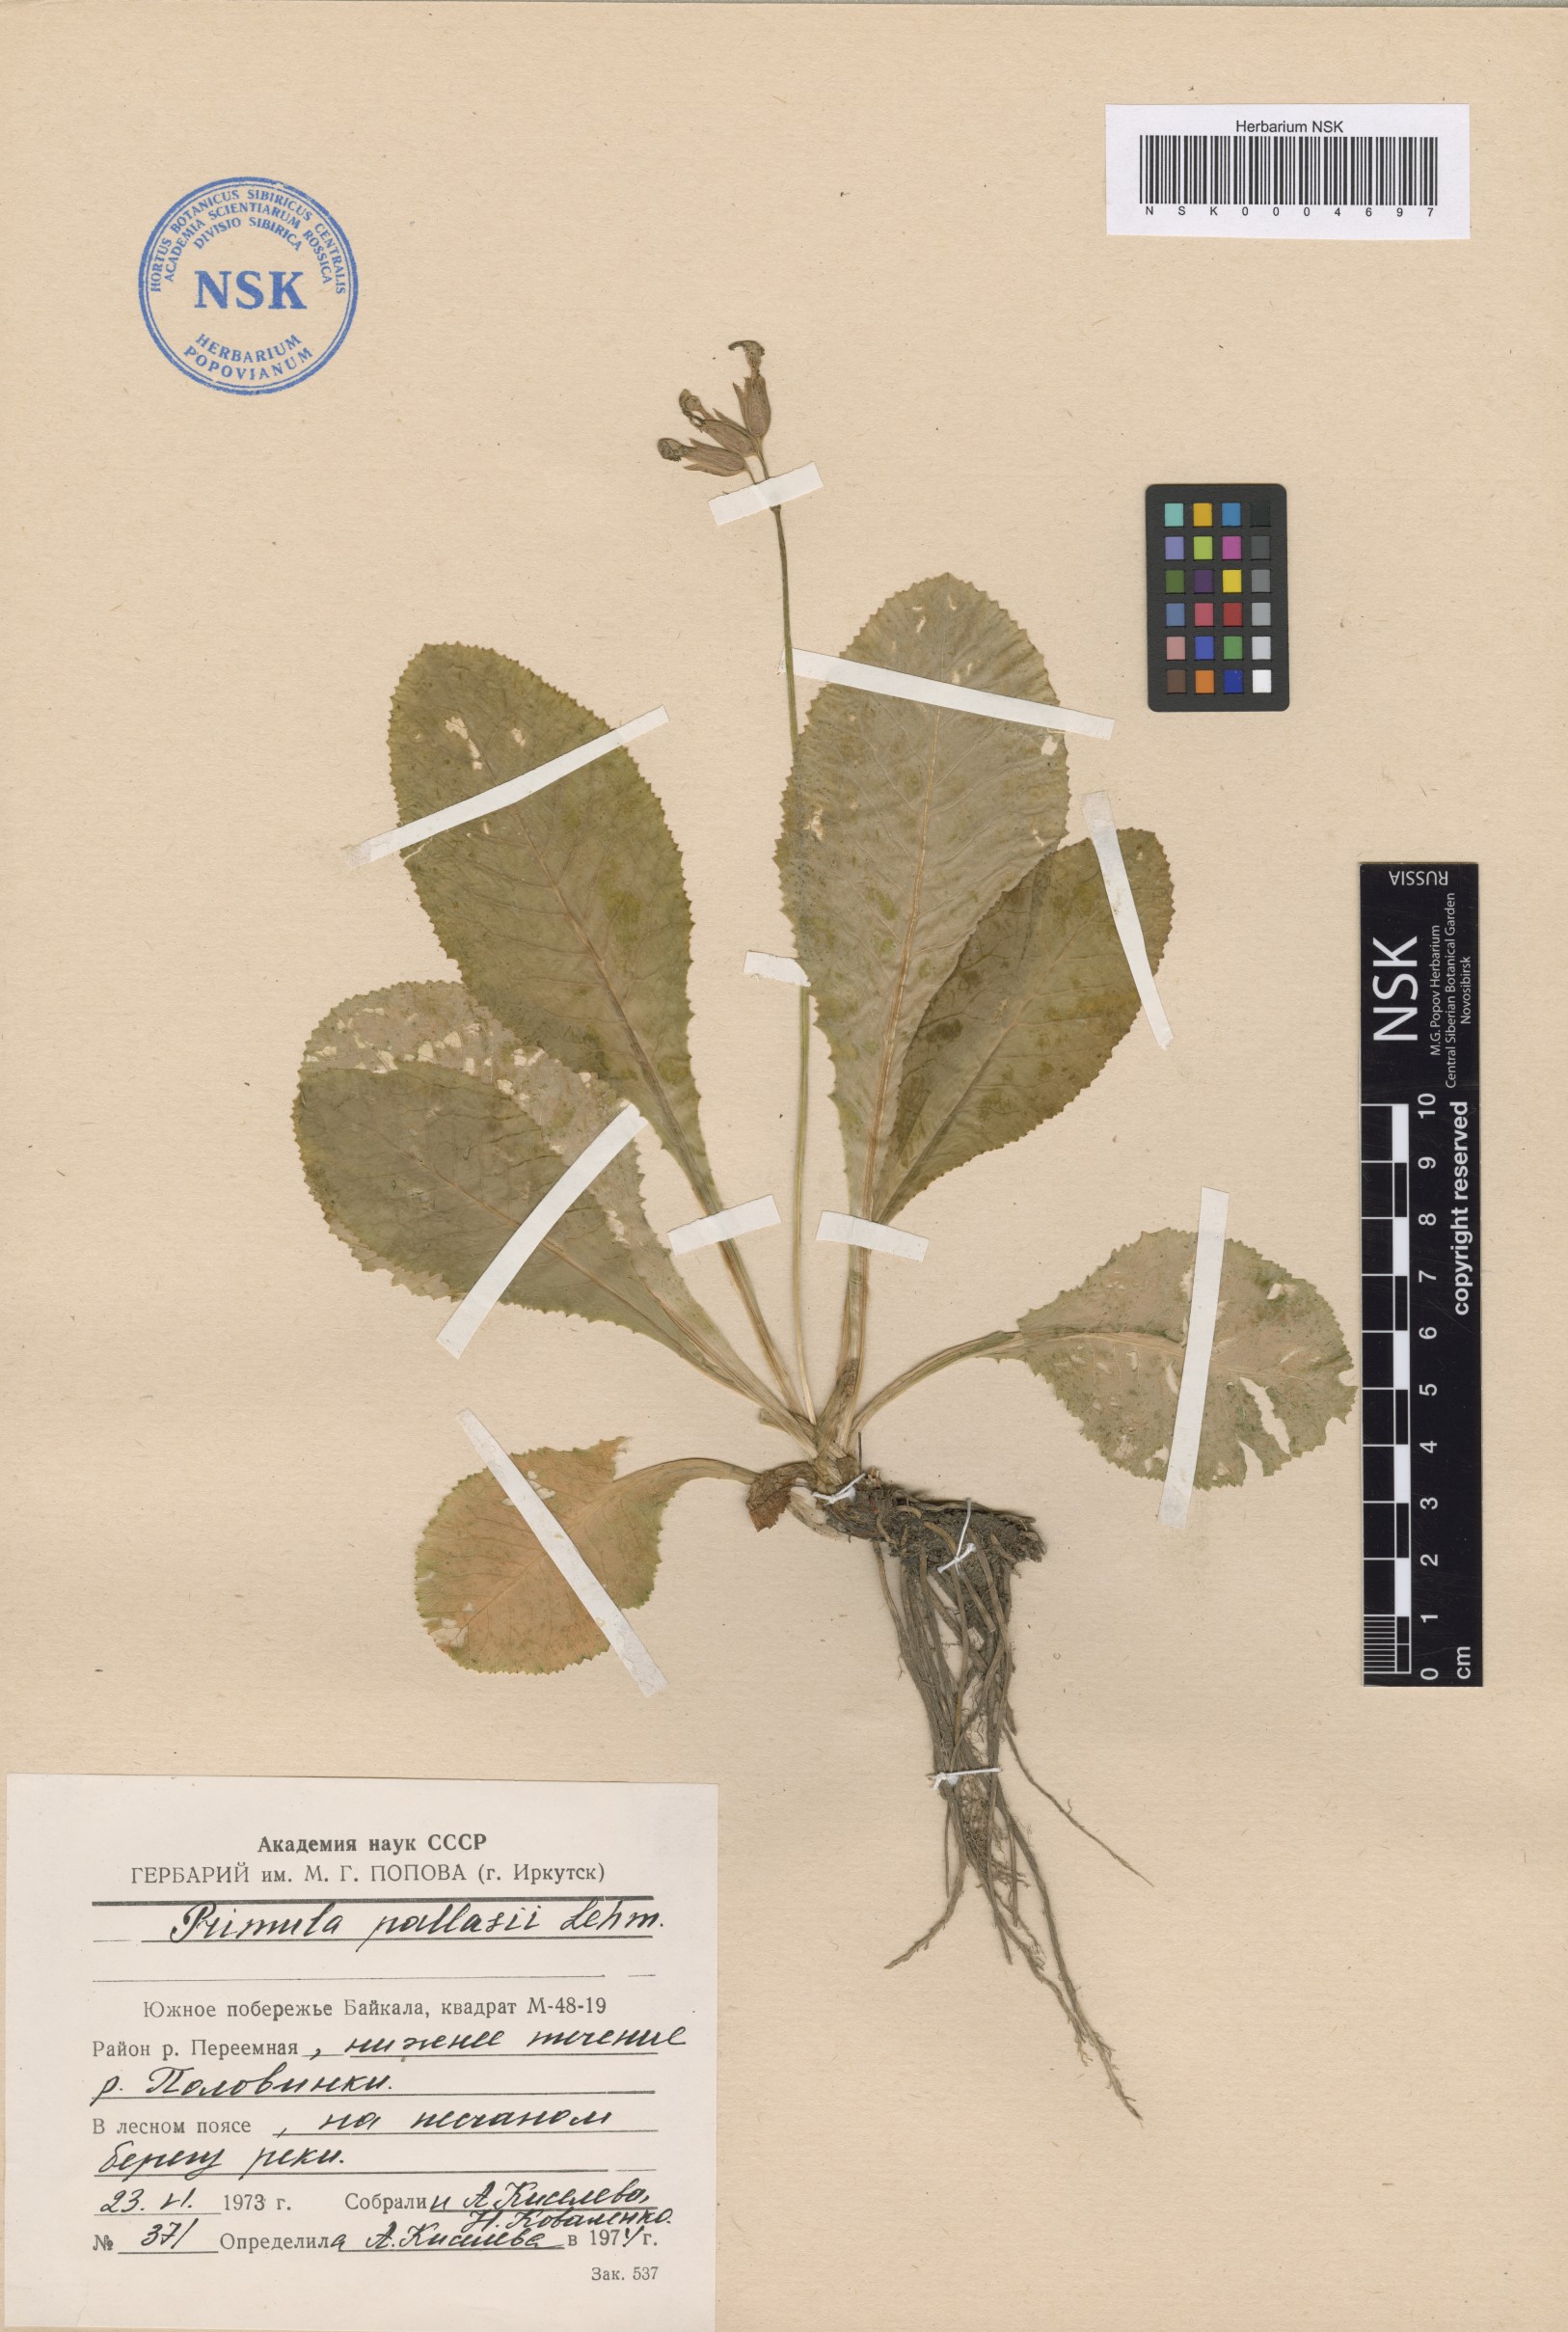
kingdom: Plantae
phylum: Tracheophyta
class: Magnoliopsida
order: Ericales
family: Primulaceae
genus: Primula
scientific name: Primula elatior
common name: Oxlip
